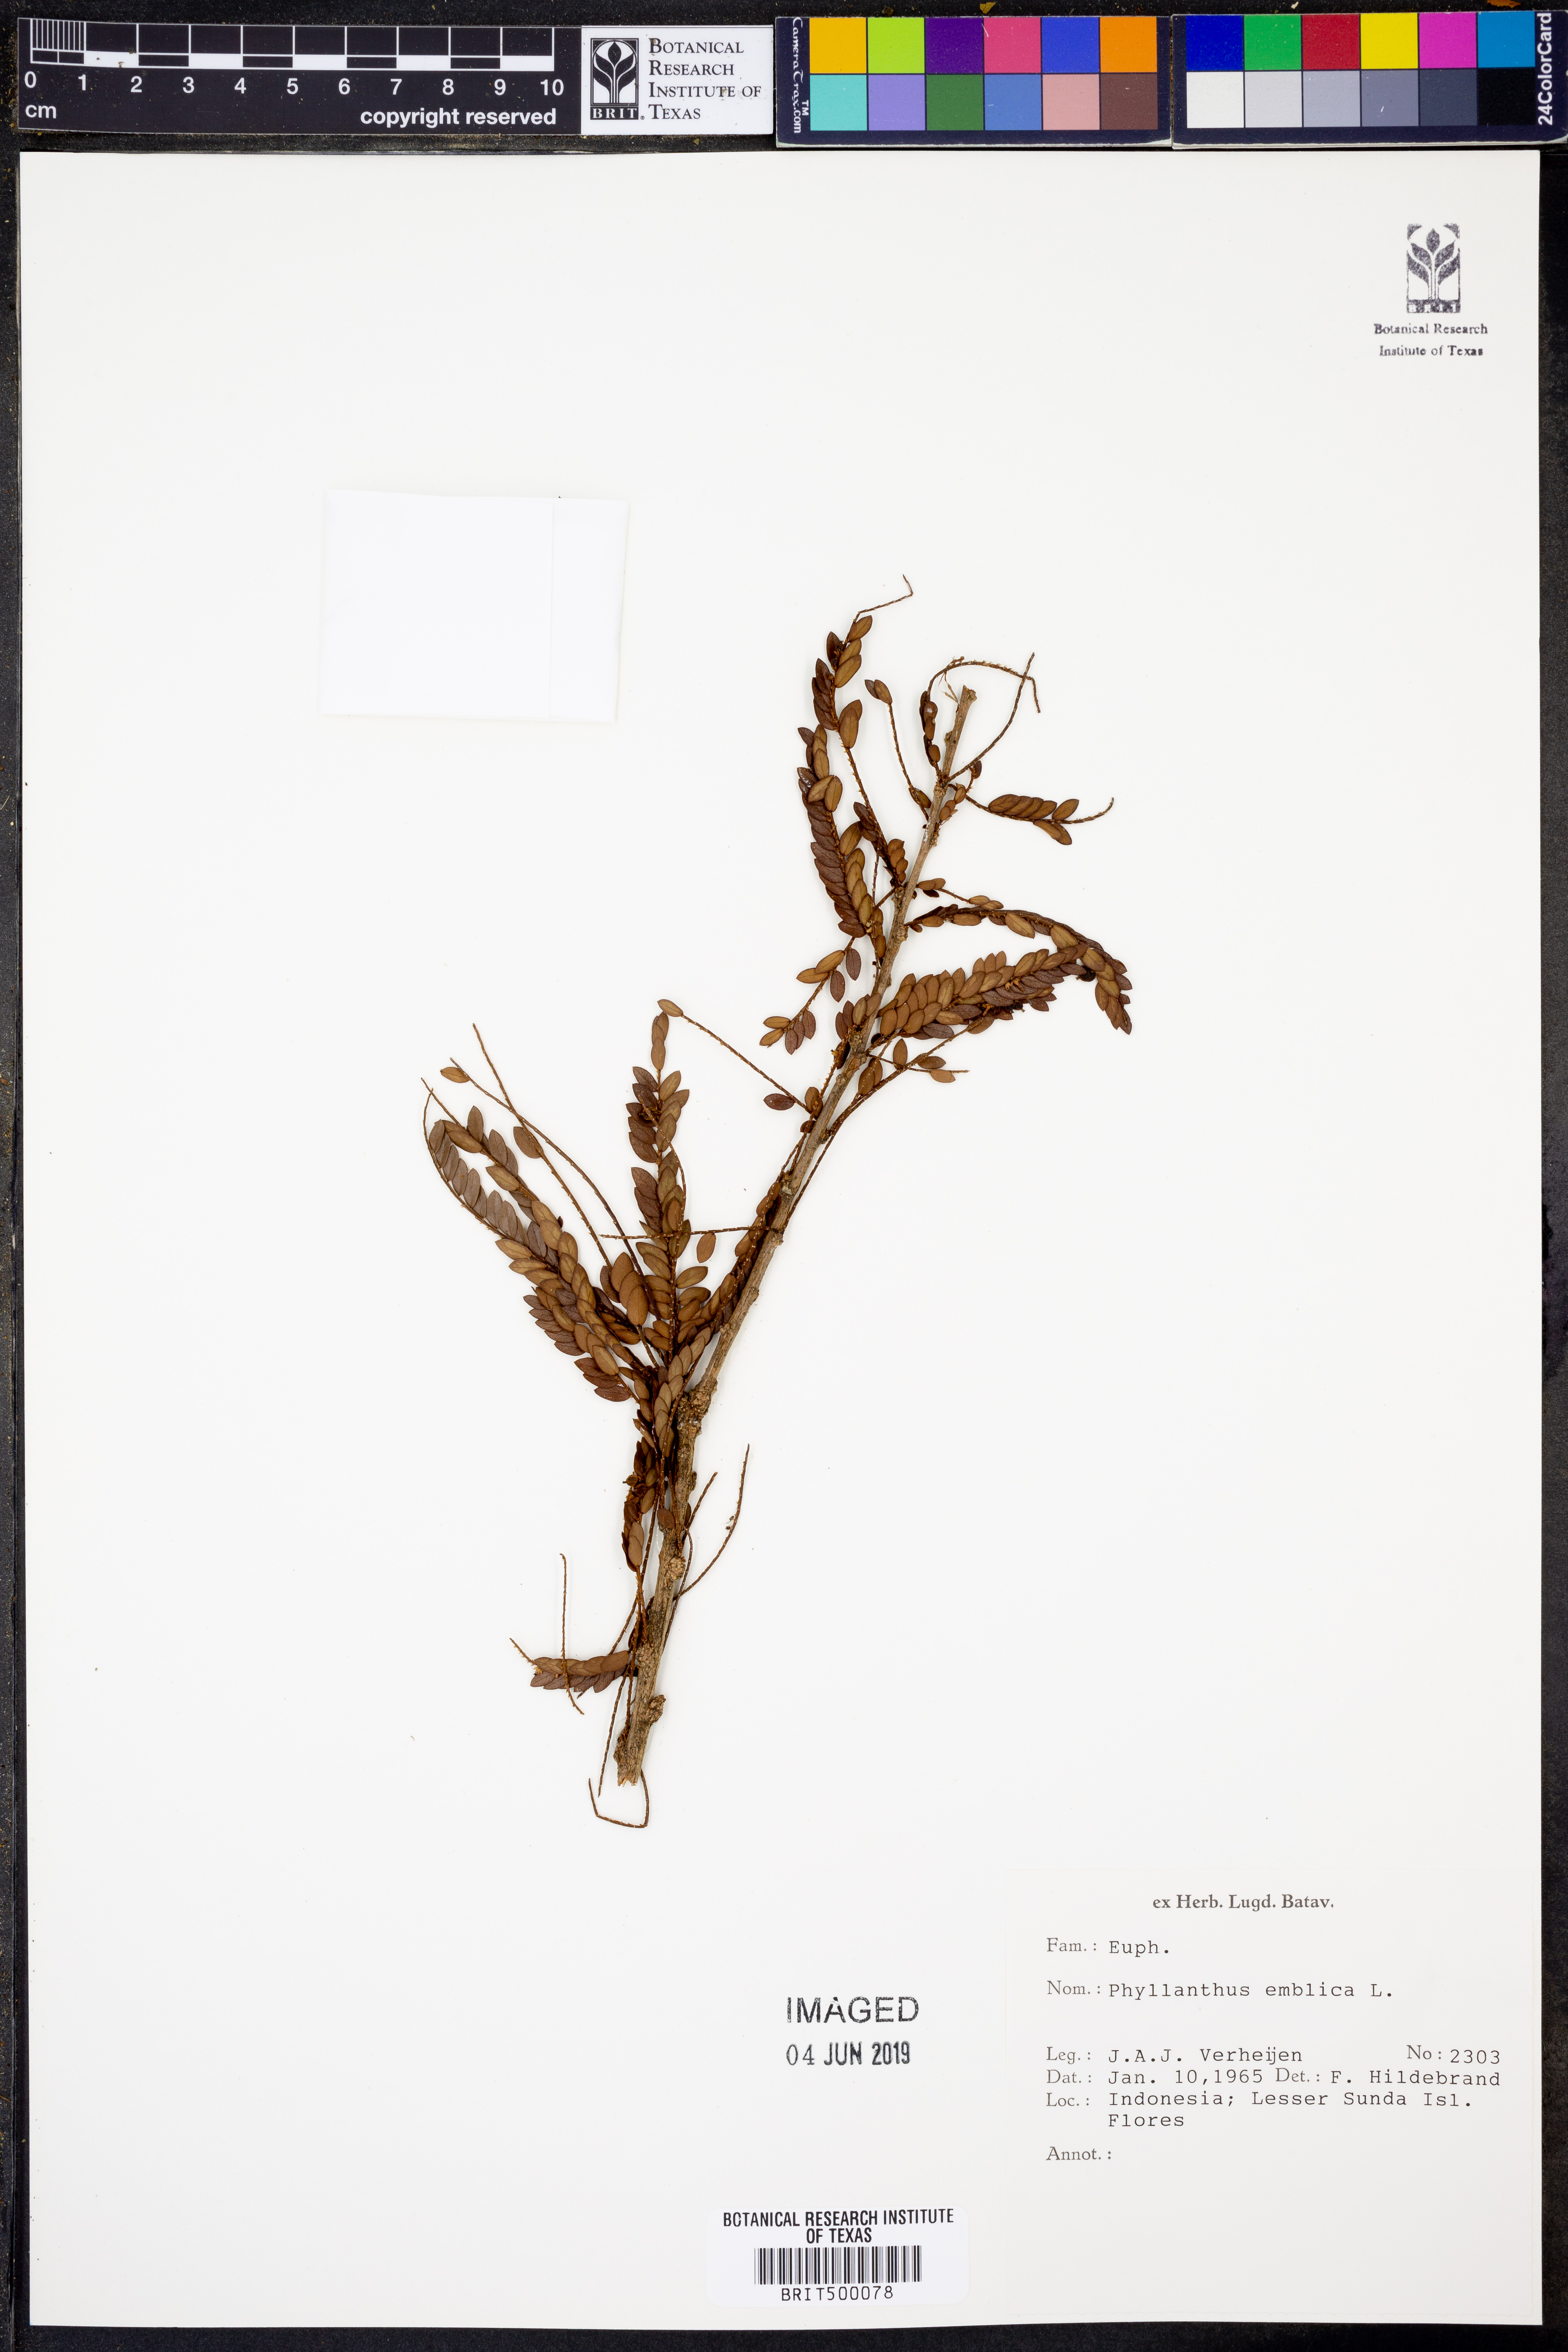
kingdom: Plantae
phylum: Tracheophyta
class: Magnoliopsida
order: Malpighiales
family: Phyllanthaceae
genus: Phyllanthus
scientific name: Phyllanthus emblica
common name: Indian gooseberry
